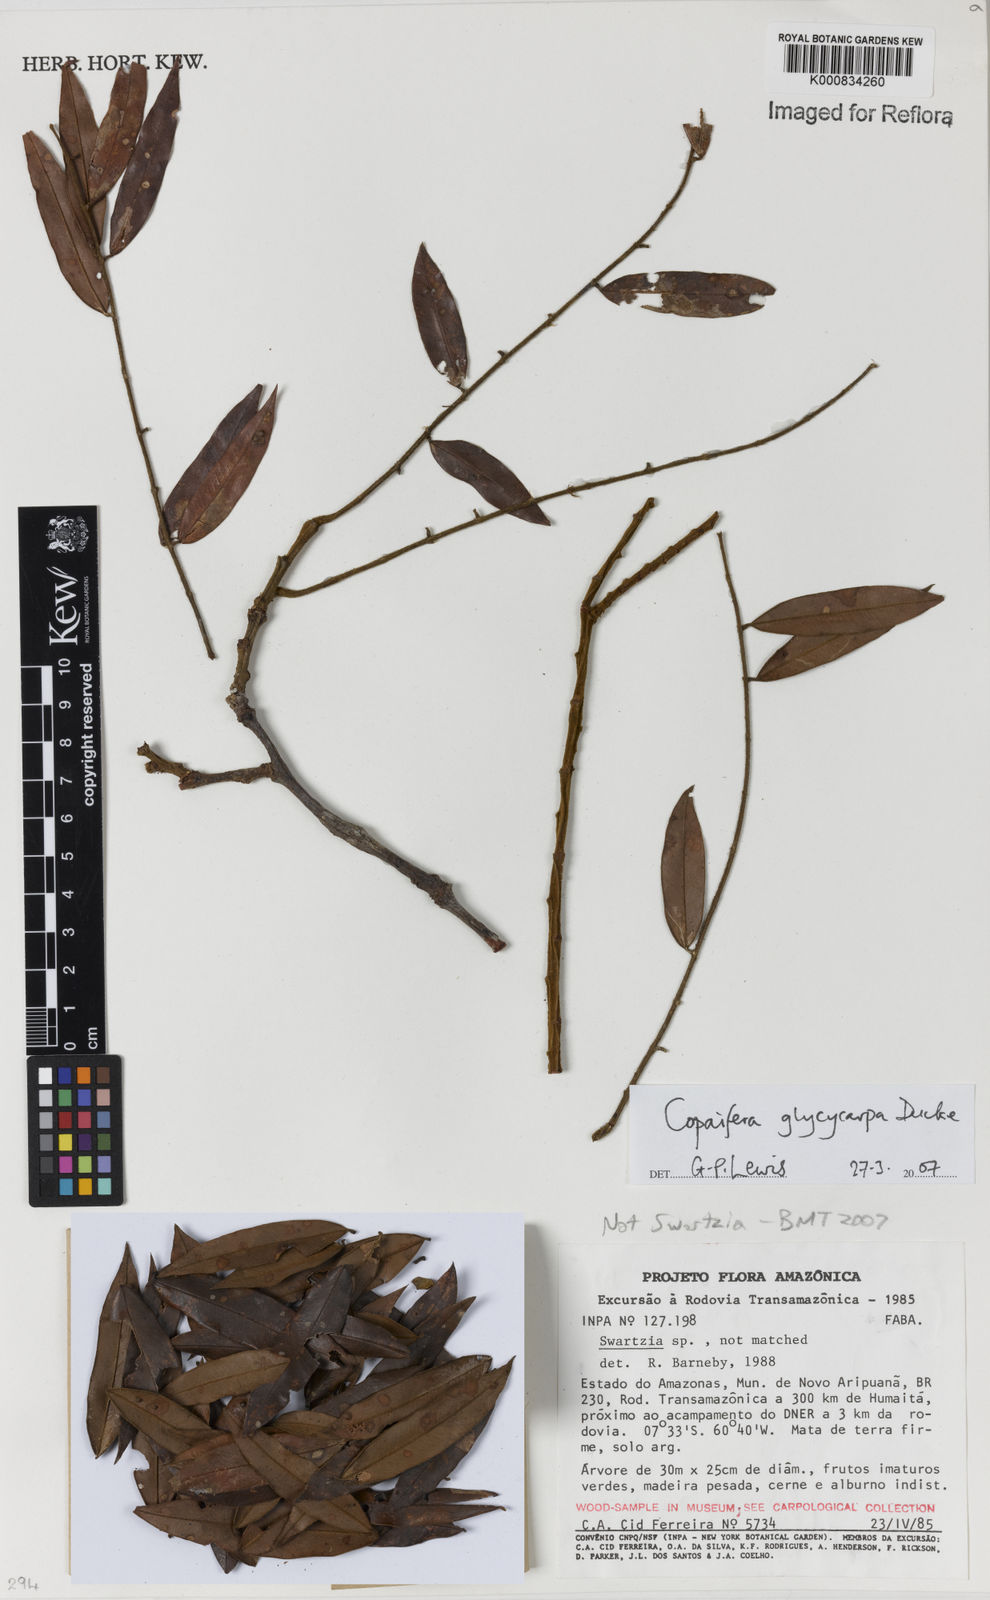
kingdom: Plantae
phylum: Tracheophyta
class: Magnoliopsida
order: Fabales
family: Fabaceae
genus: Copaifera
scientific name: Copaifera glycycarpa
